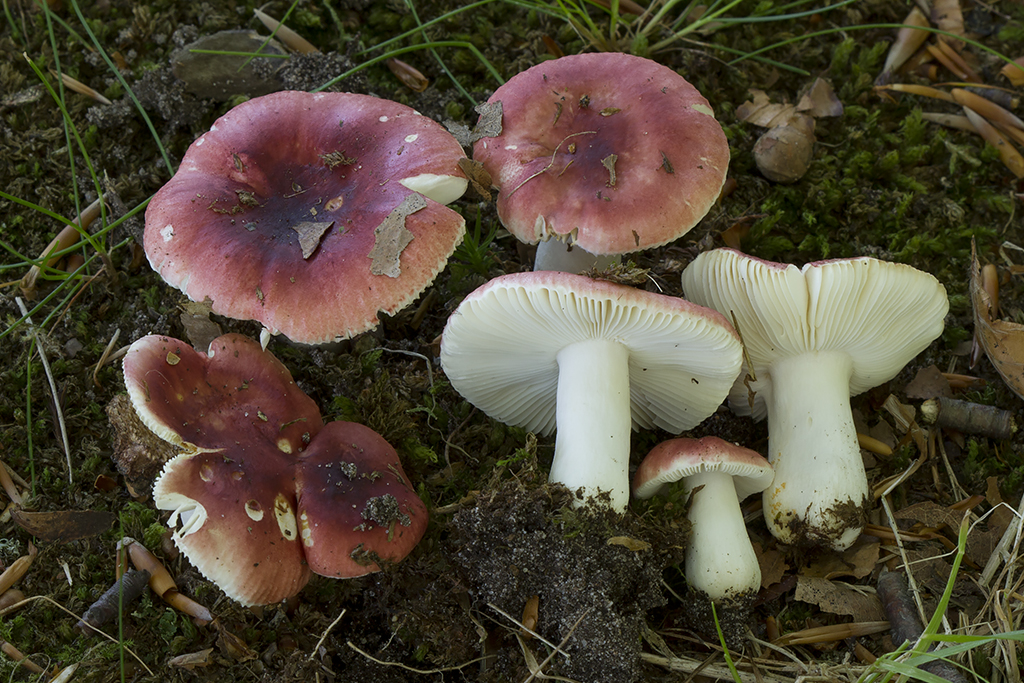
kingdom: Fungi
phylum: Basidiomycota
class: Agaricomycetes
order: Russulales
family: Russulaceae
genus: Russula
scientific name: Russula puellula
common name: gulnende skørhat
